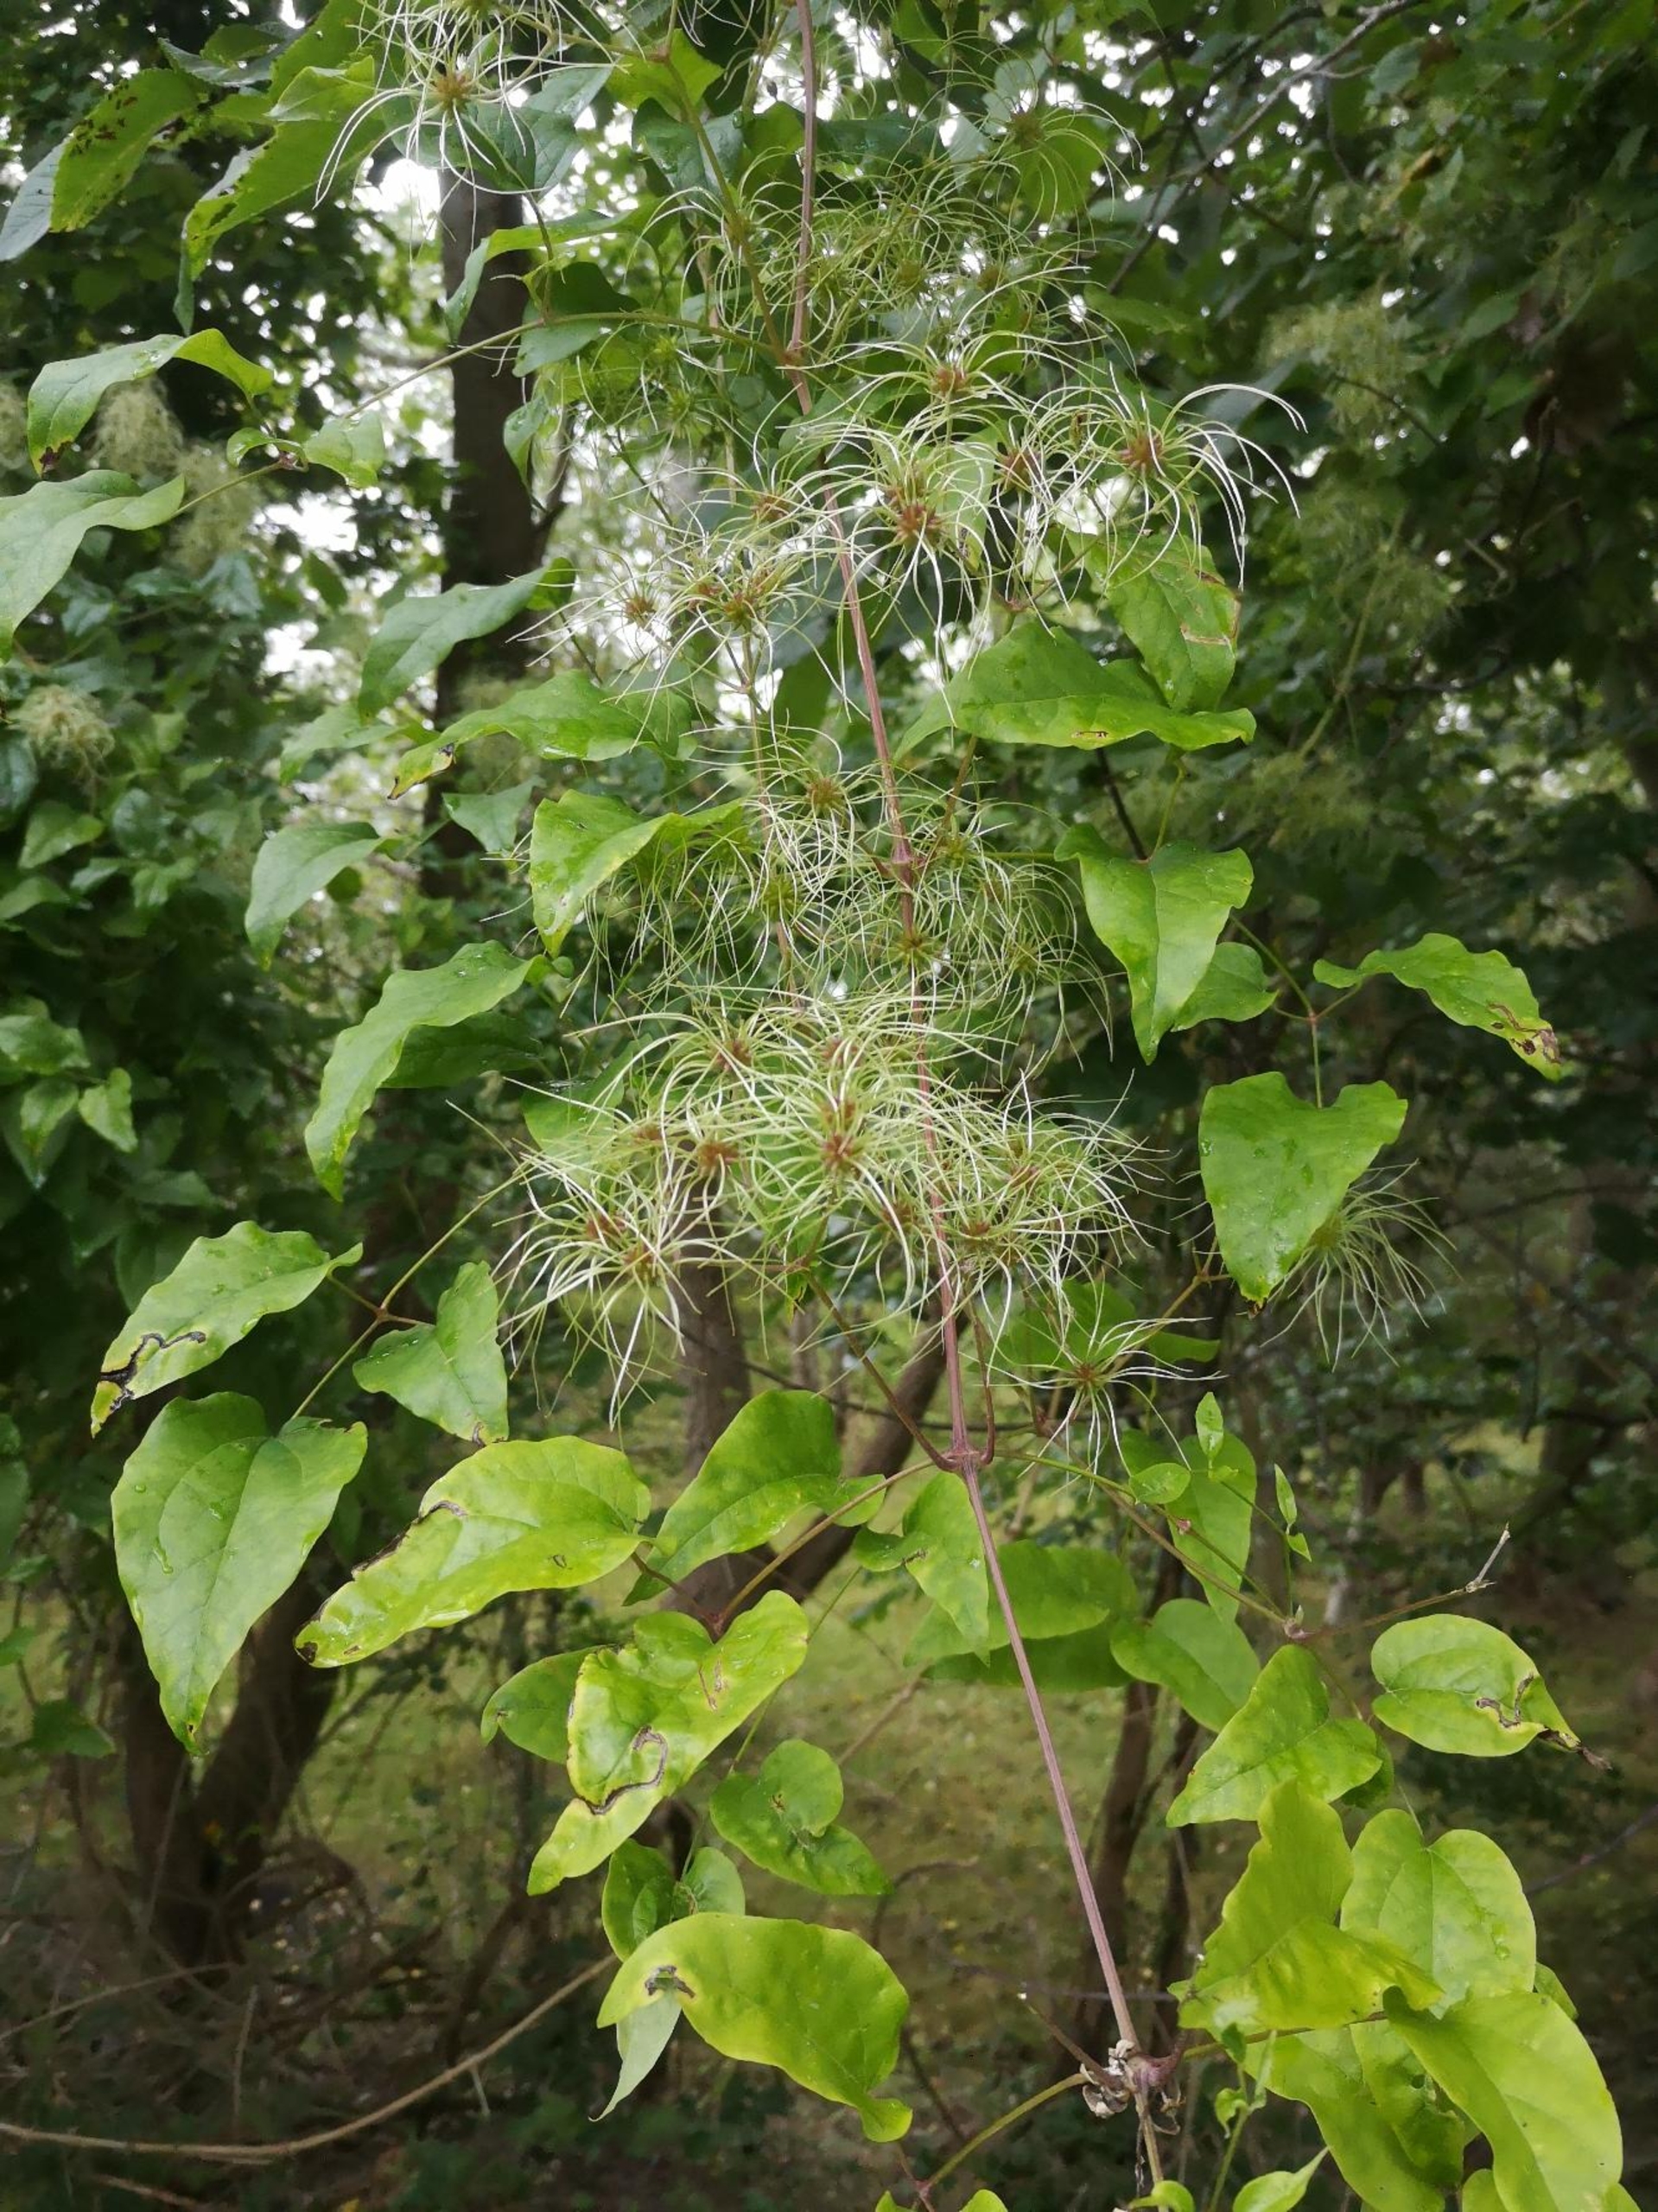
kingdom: Plantae
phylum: Tracheophyta
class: Magnoliopsida
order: Ranunculales
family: Ranunculaceae
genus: Clematis
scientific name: Clematis vitalba
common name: Skovranke
